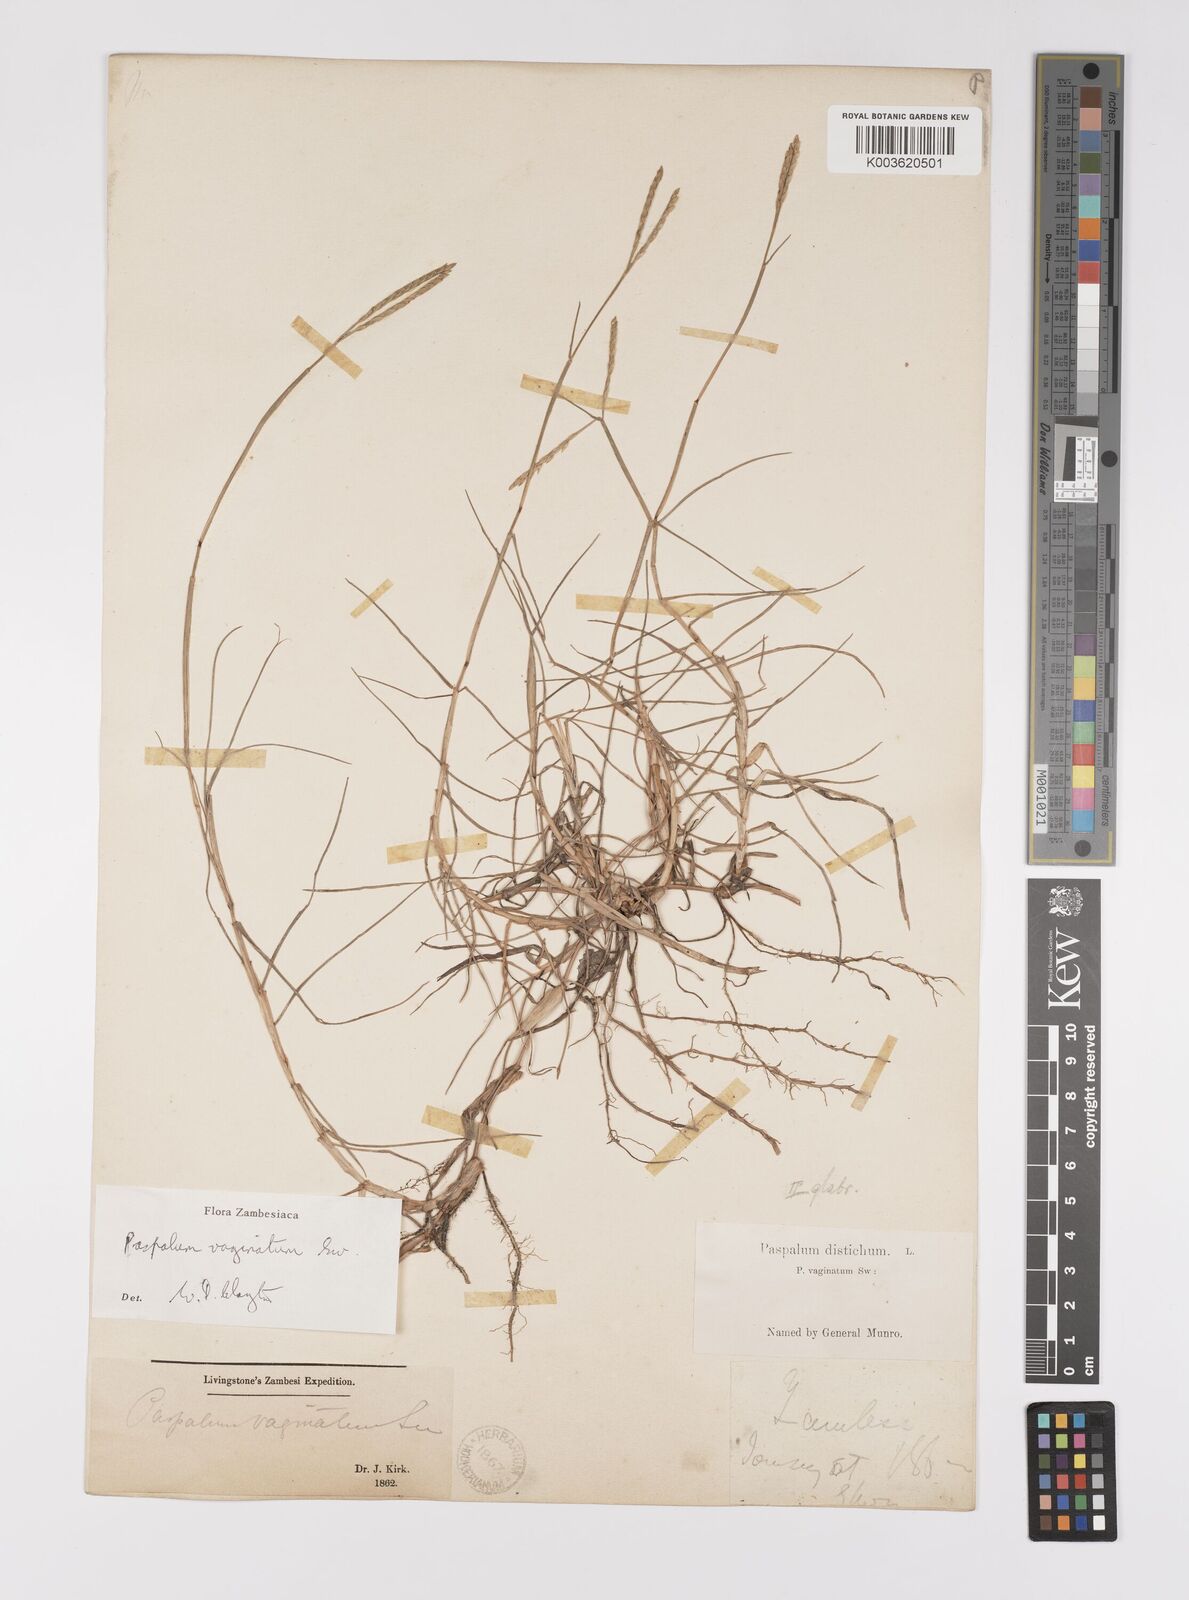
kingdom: Plantae
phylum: Tracheophyta
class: Liliopsida
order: Poales
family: Poaceae
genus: Paspalum
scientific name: Paspalum vaginatum
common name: Seashore paspalum
